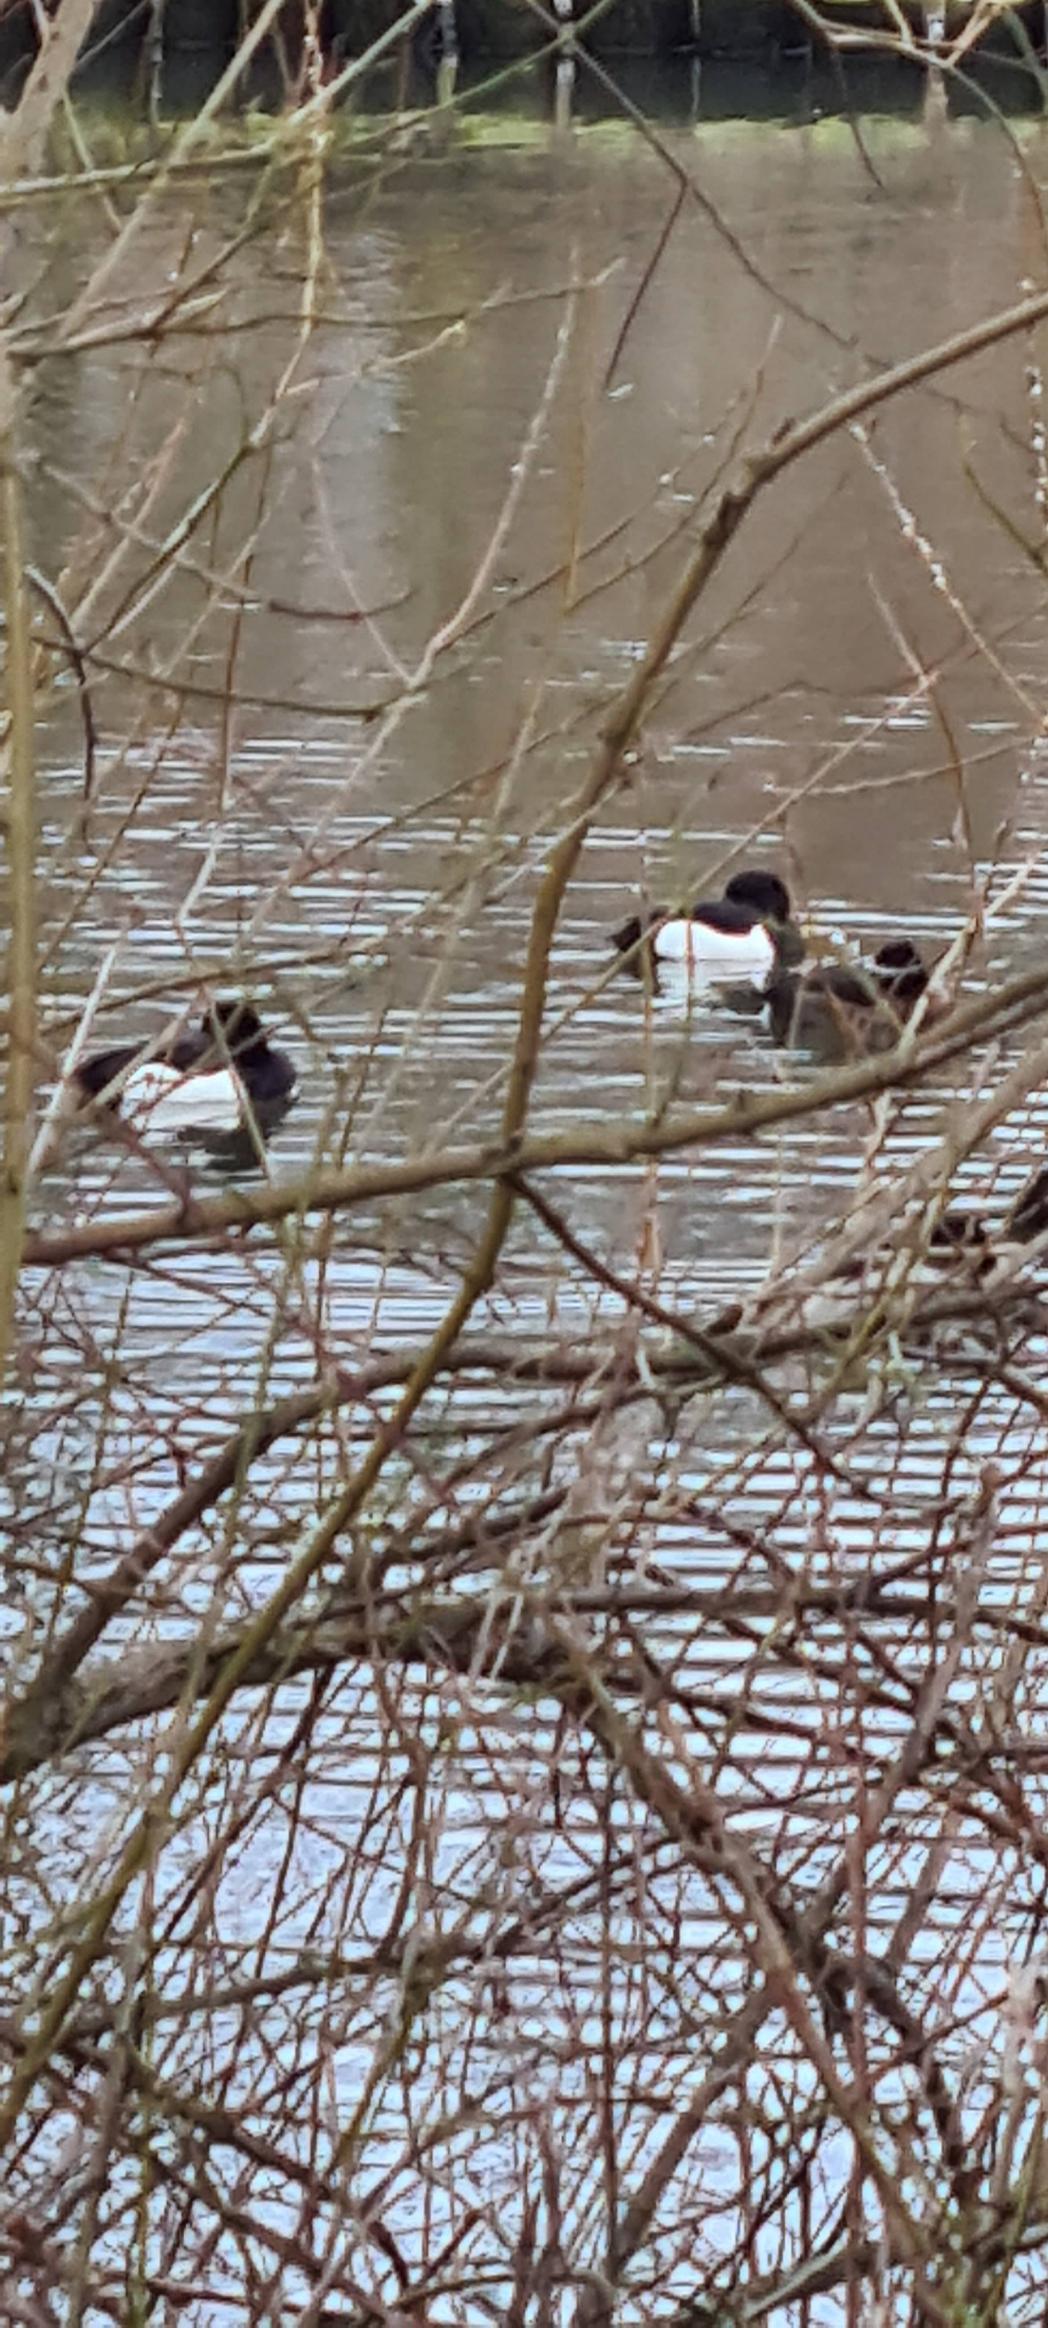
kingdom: Animalia
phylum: Chordata
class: Aves
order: Anseriformes
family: Anatidae
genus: Aythya
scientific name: Aythya fuligula
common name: Troldand
